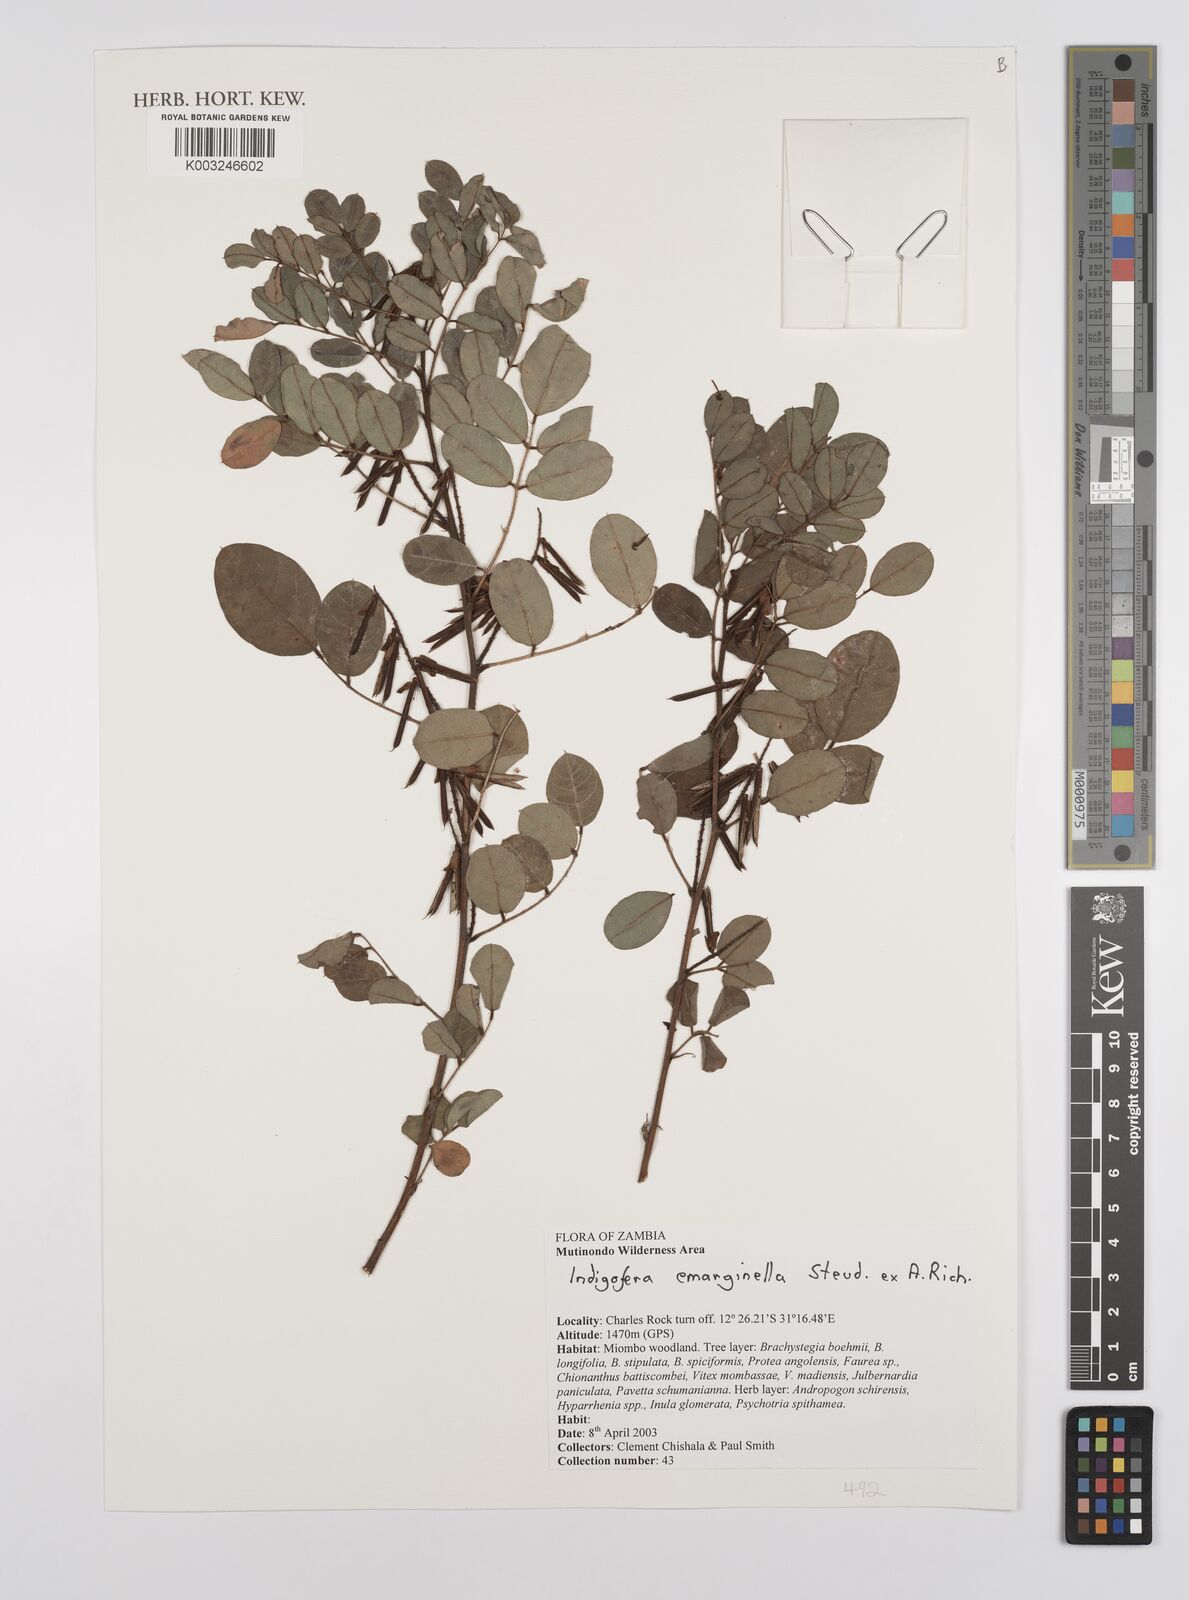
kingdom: Plantae
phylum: Tracheophyta
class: Magnoliopsida
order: Fabales
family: Fabaceae
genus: Indigofera
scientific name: Indigofera emarginella
